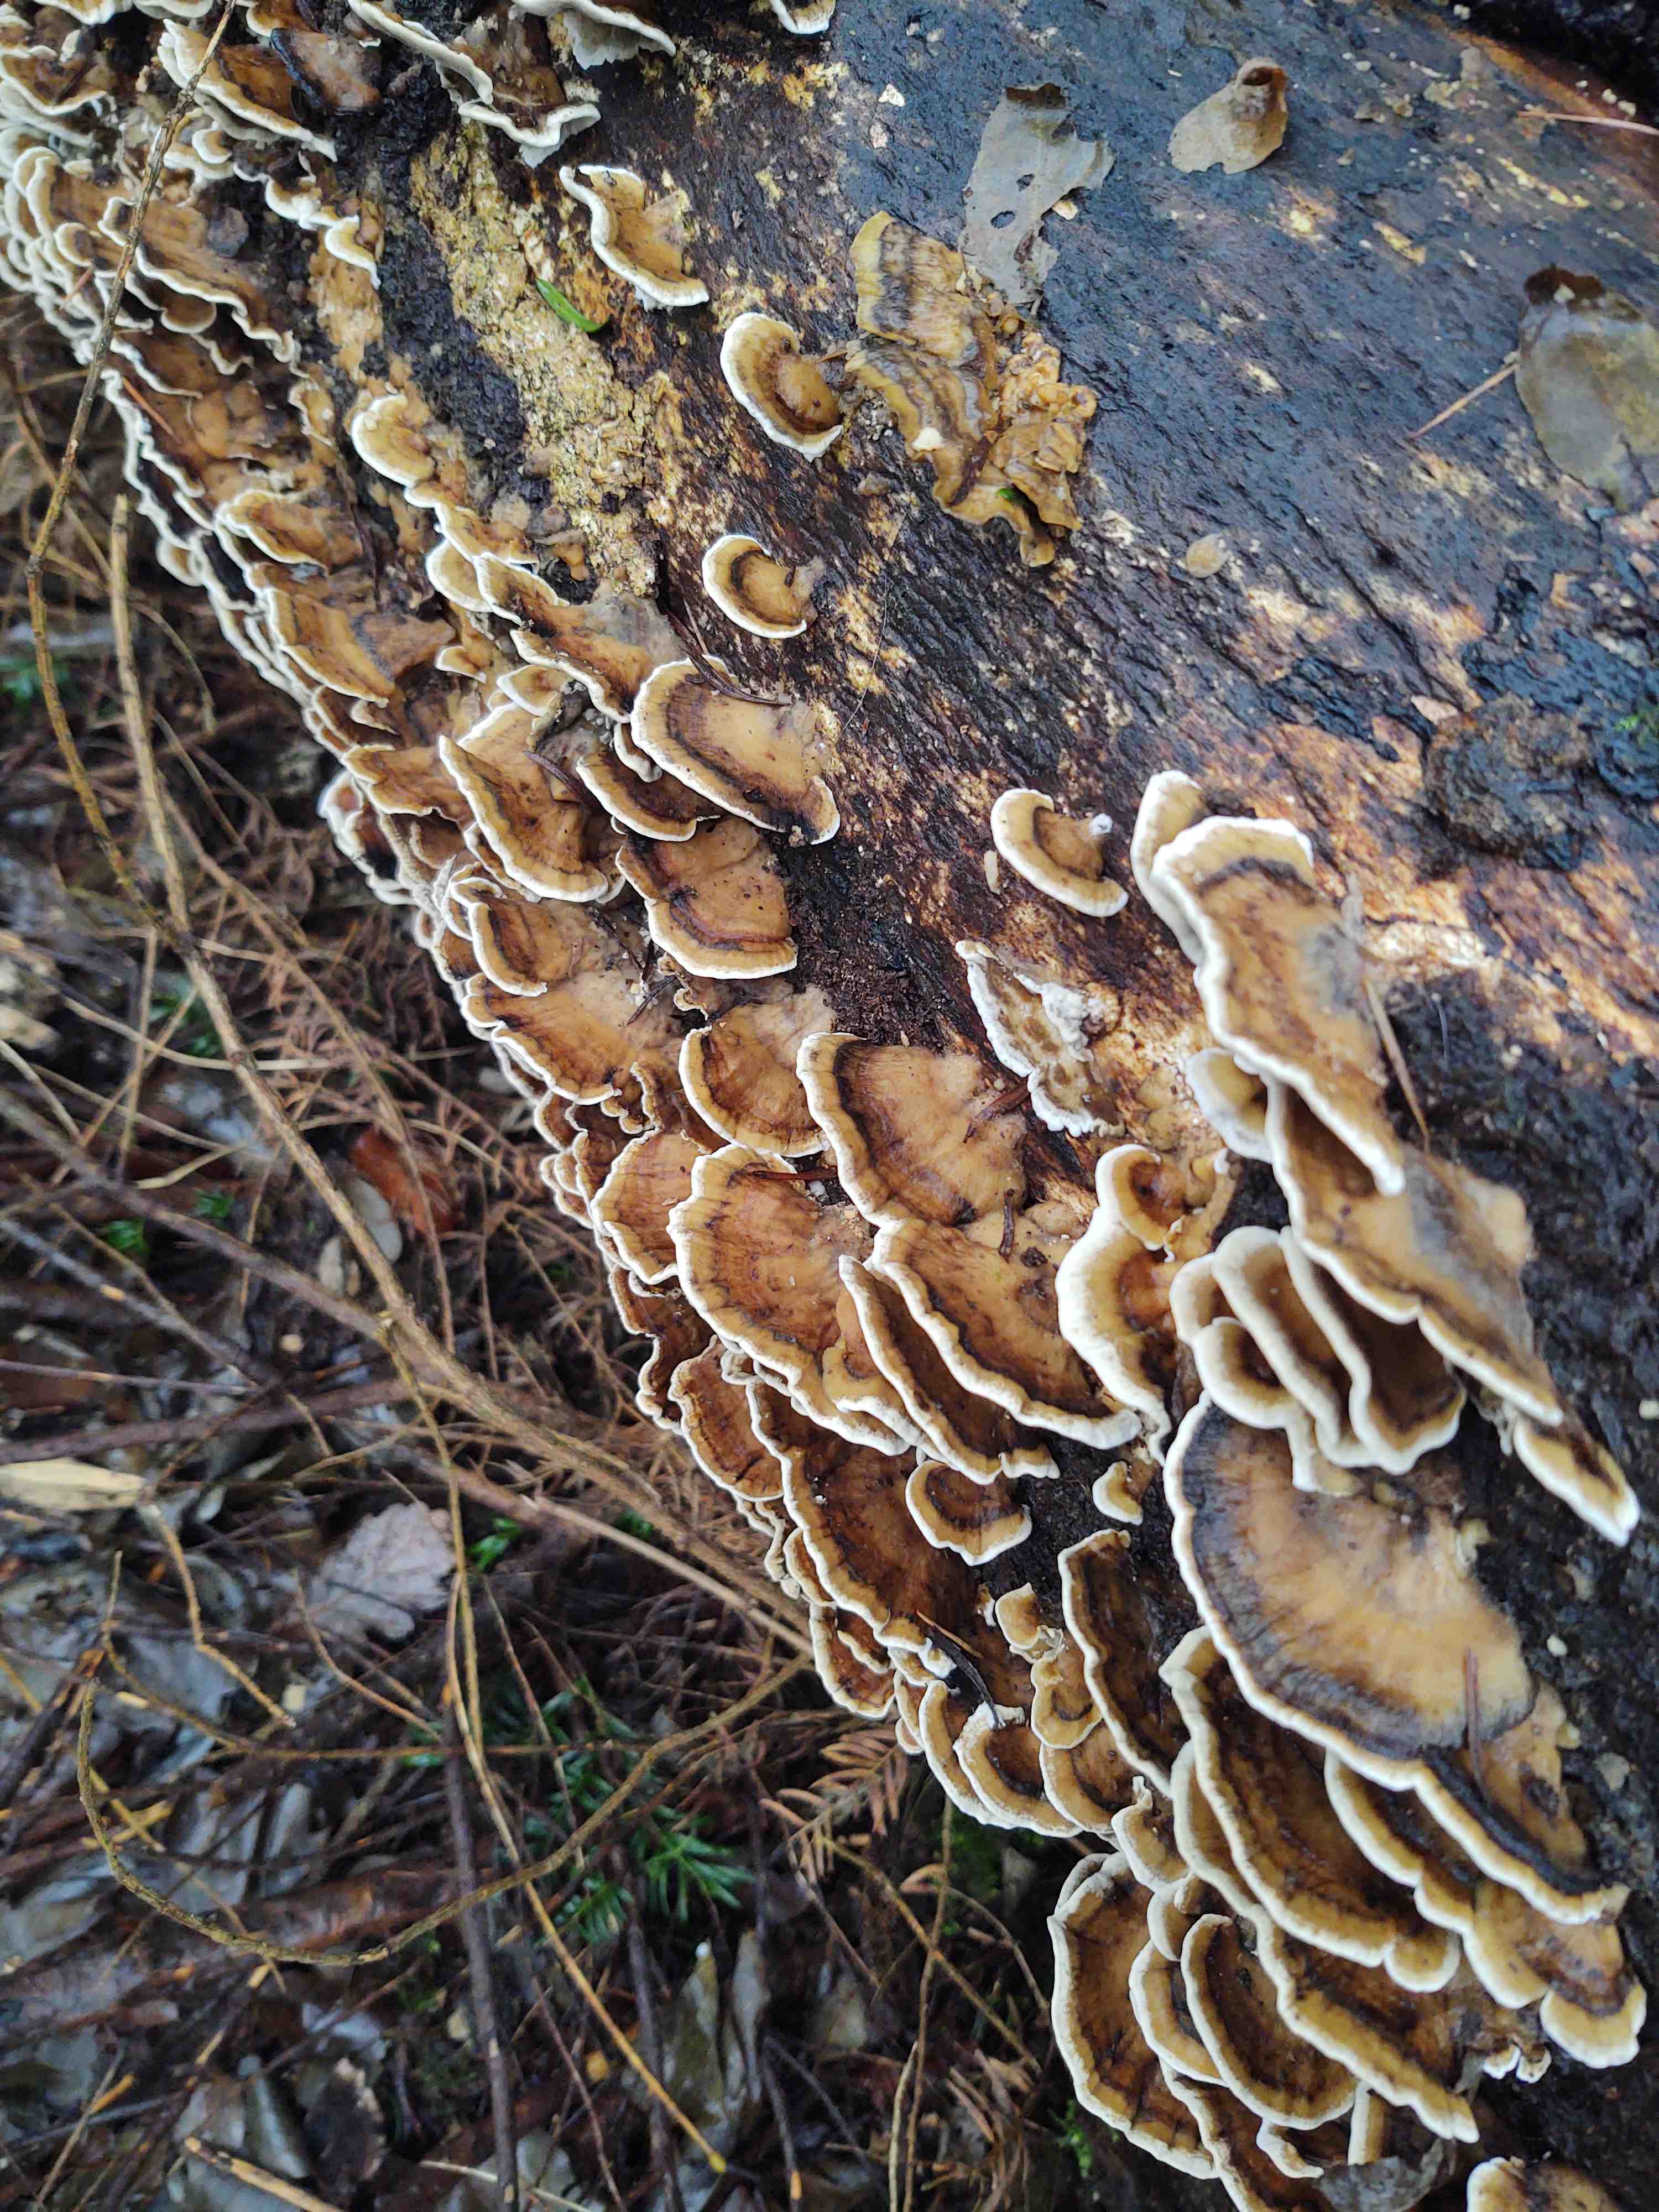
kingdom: Fungi
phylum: Basidiomycota
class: Agaricomycetes
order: Polyporales
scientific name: Polyporales
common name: poresvampordenen
